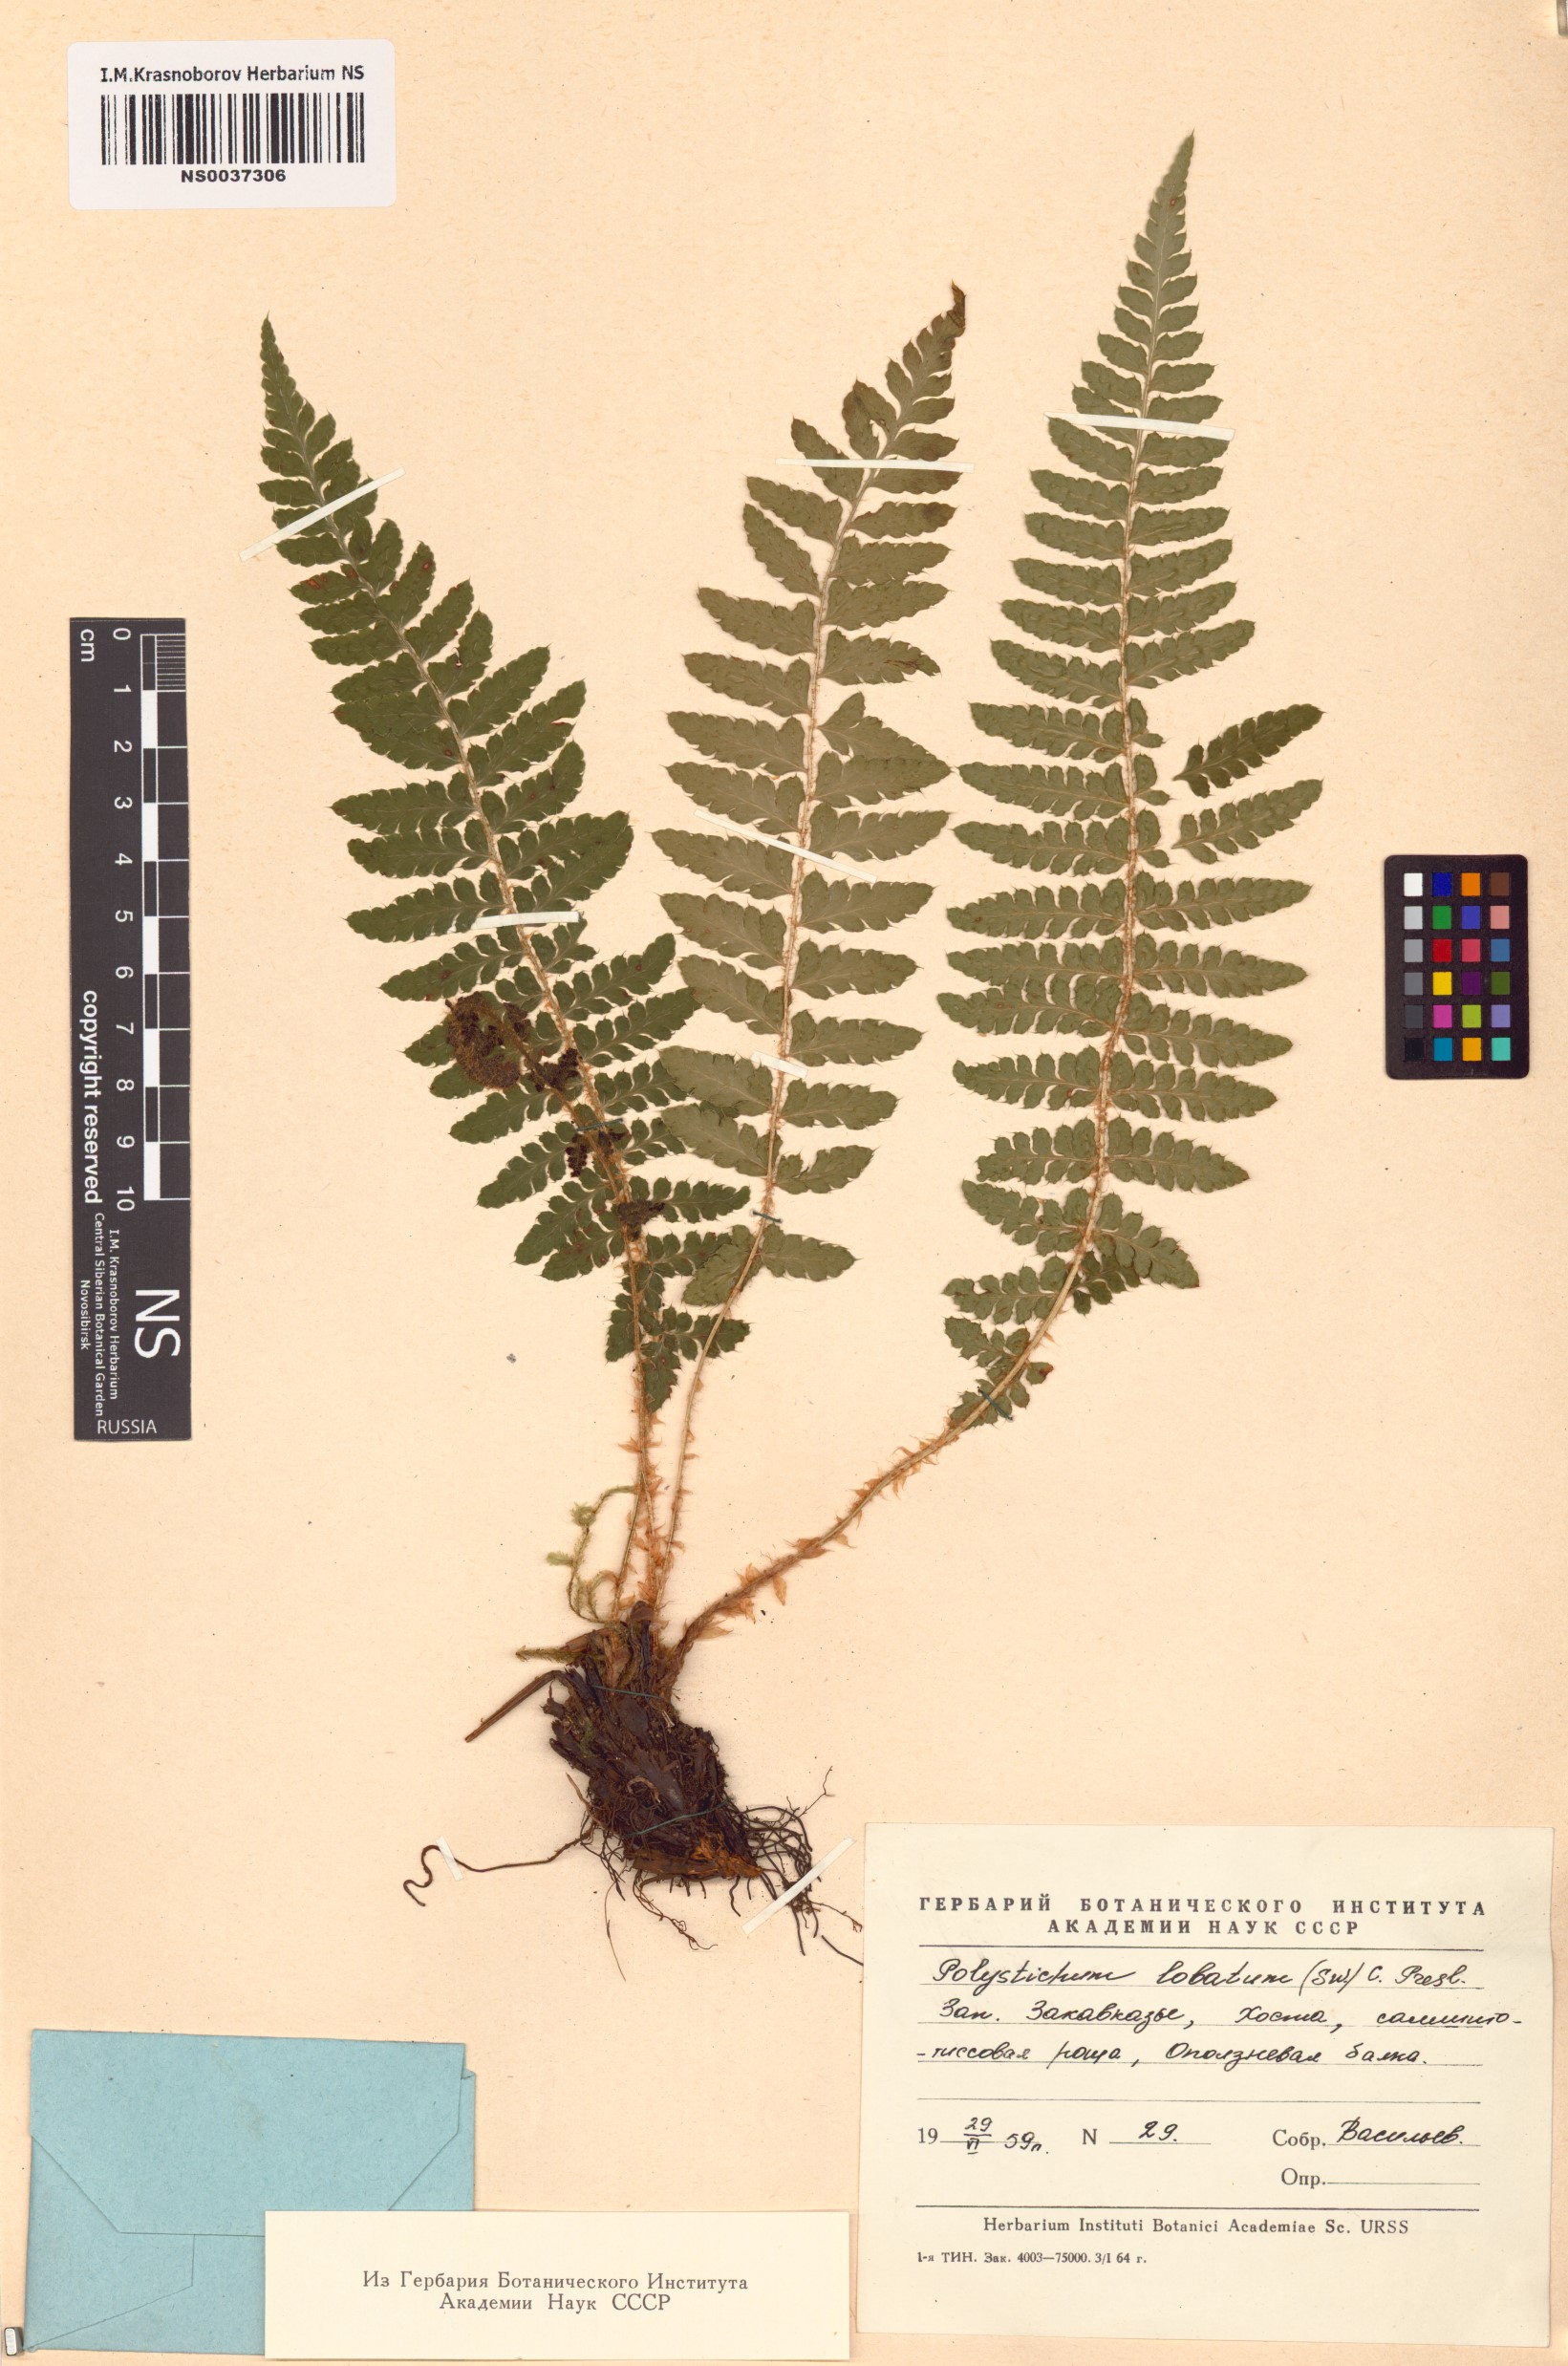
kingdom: Plantae
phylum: Tracheophyta
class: Polypodiopsida
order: Polypodiales
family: Dryopteridaceae
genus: Polystichum
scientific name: Polystichum aculeatum
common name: Hard shield-fern
